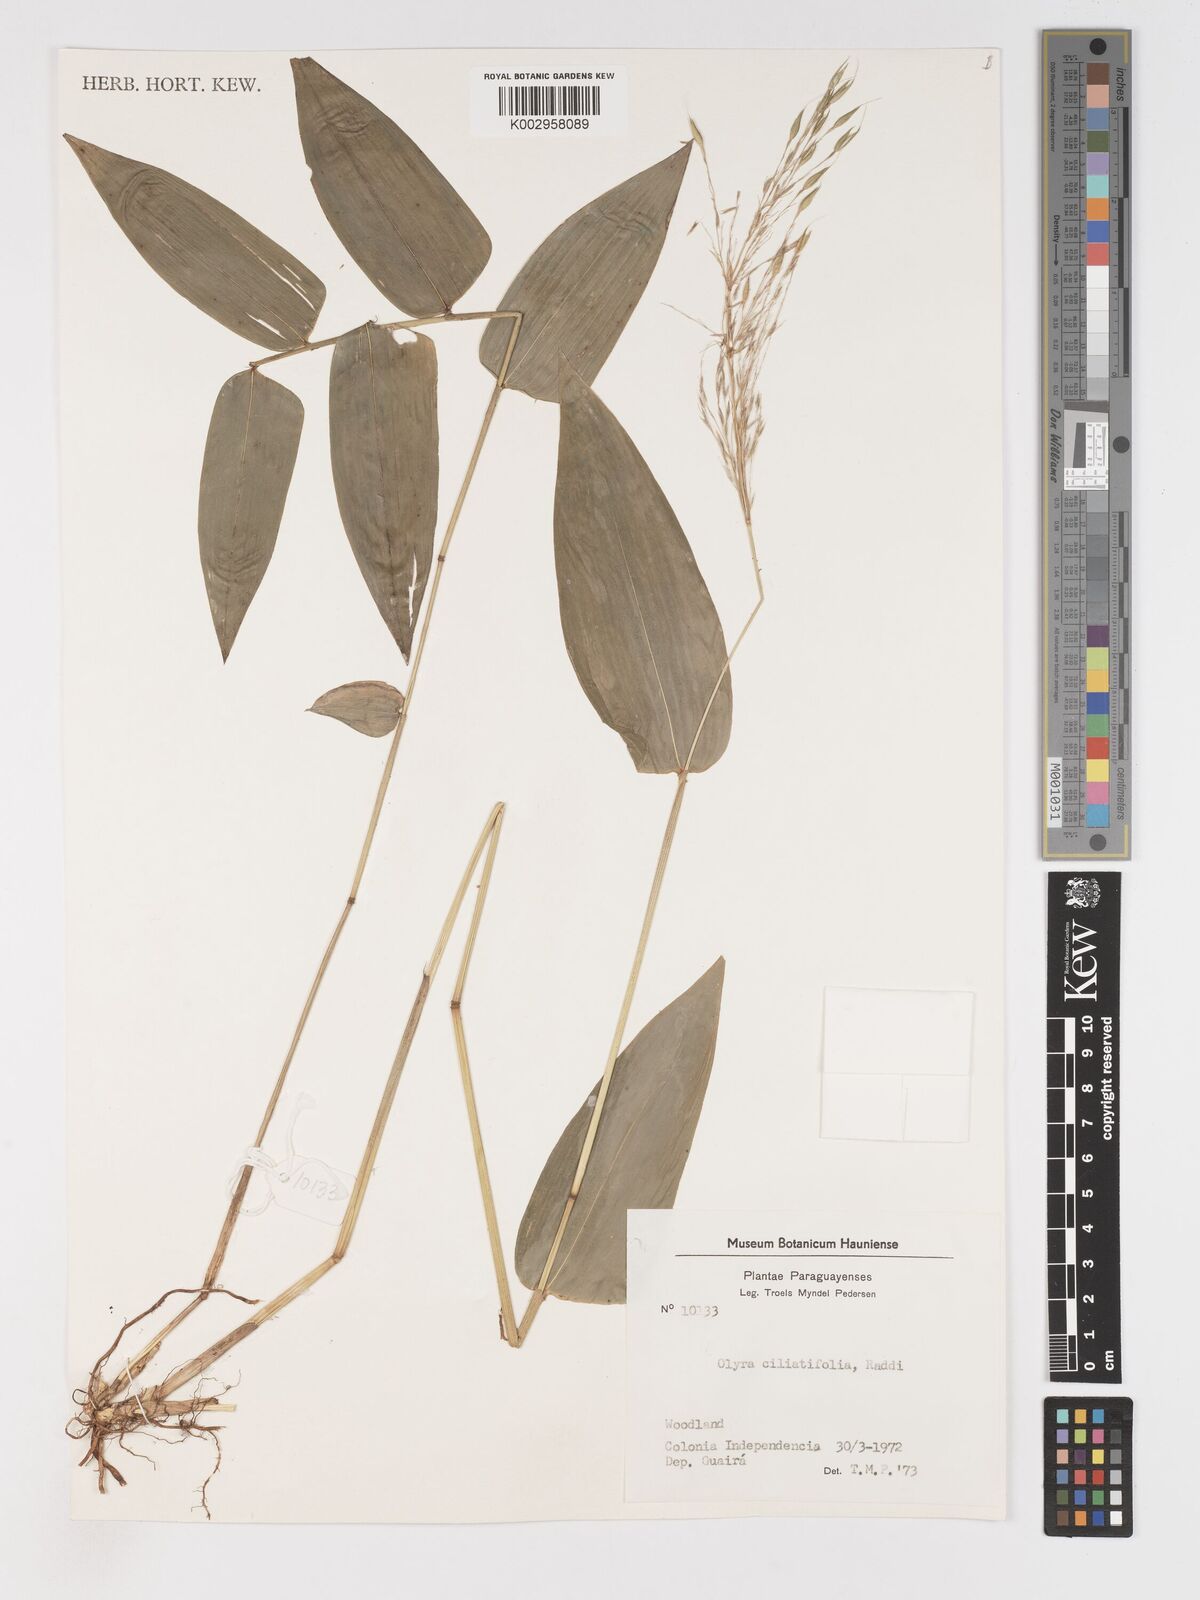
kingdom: Plantae
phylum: Tracheophyta
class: Liliopsida
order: Poales
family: Poaceae
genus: Olyra
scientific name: Olyra ciliatifolia
